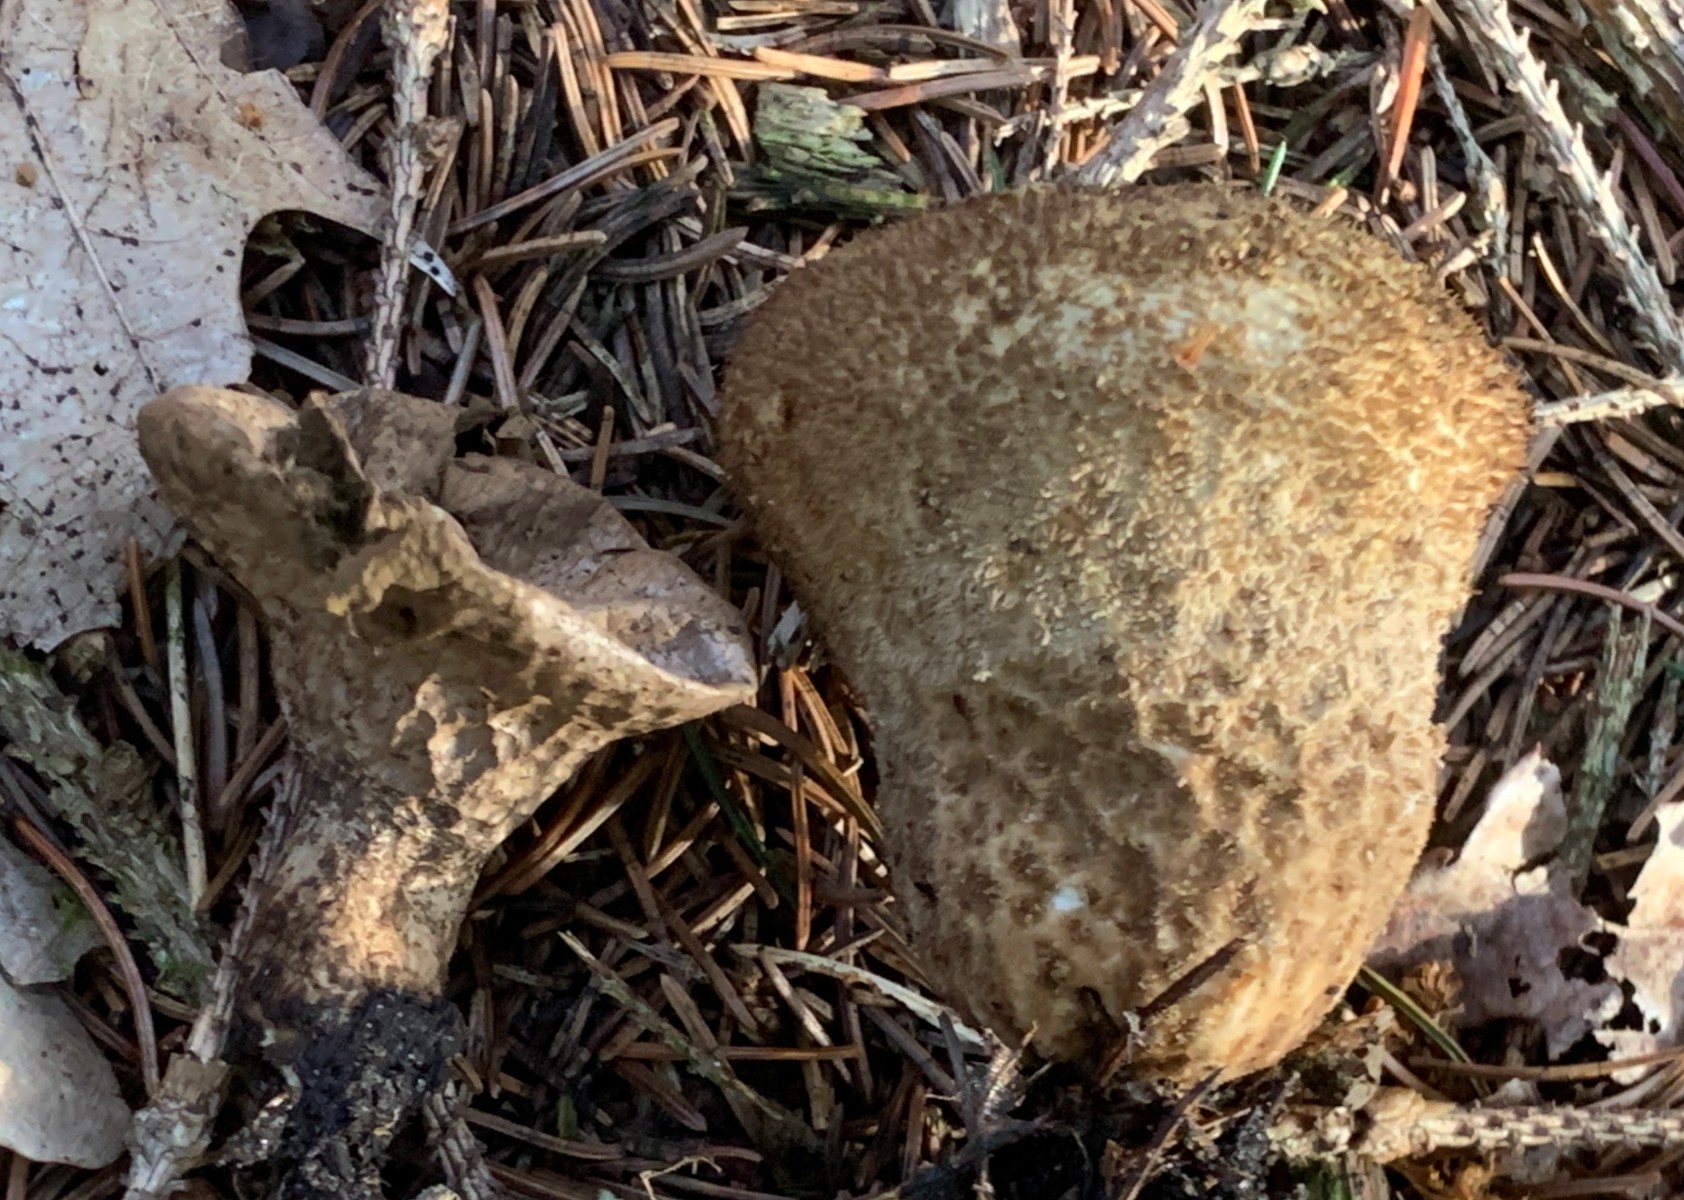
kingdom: Fungi
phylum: Basidiomycota
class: Agaricomycetes
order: Agaricales
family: Lycoperdaceae
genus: Lycoperdon
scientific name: Lycoperdon nigrescens
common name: sortagtig støvbold
